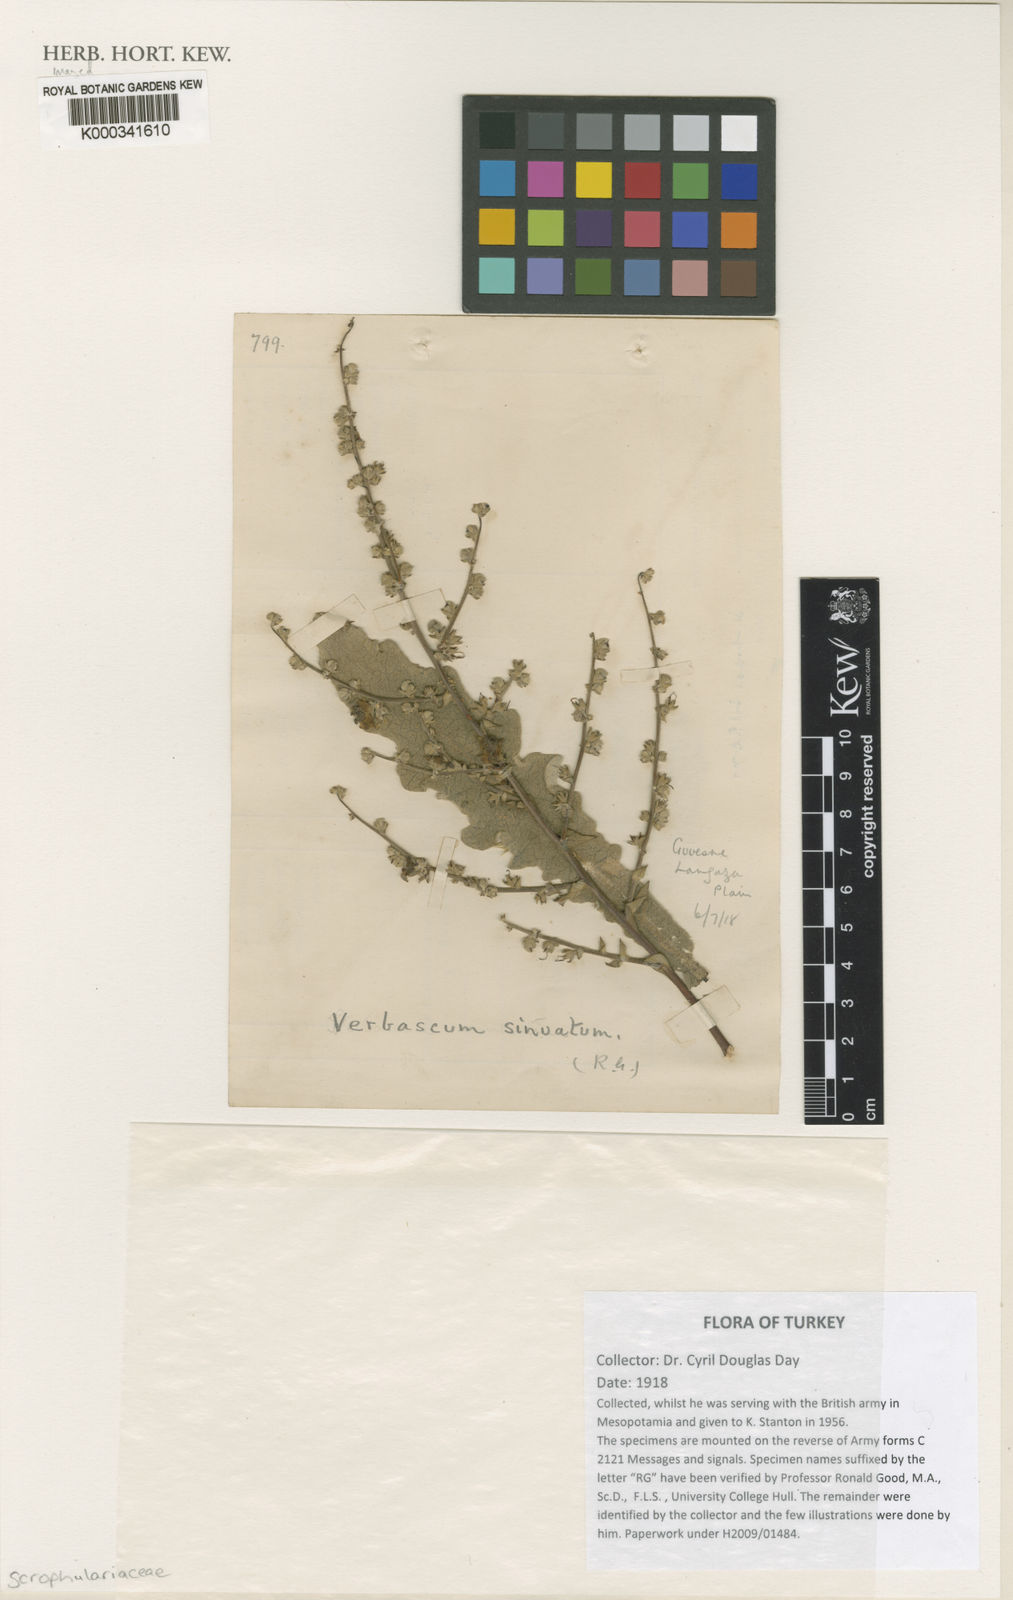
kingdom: Plantae
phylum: Tracheophyta
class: Magnoliopsida
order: Lamiales
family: Scrophulariaceae
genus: Verbascum
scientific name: Verbascum sinuatum
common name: Wavyleaf mullein
